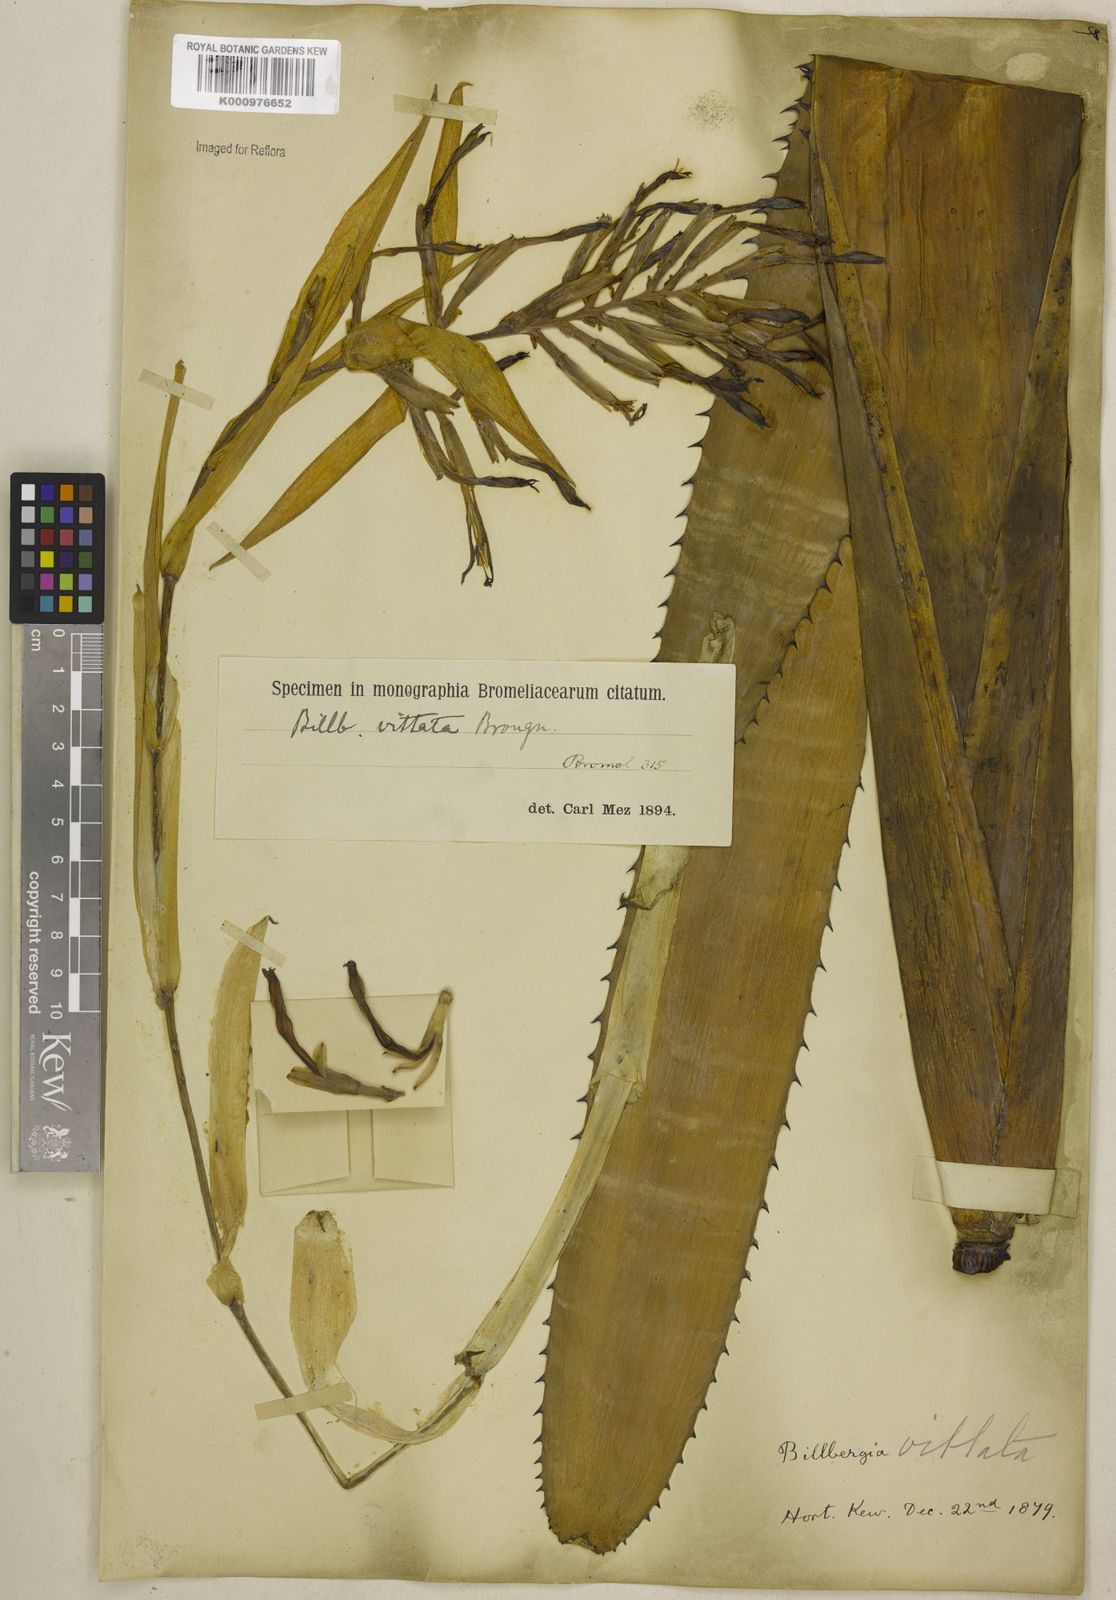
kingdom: Plantae
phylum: Tracheophyta
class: Liliopsida
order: Poales
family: Bromeliaceae
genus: Billbergia
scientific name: Billbergia vittata
